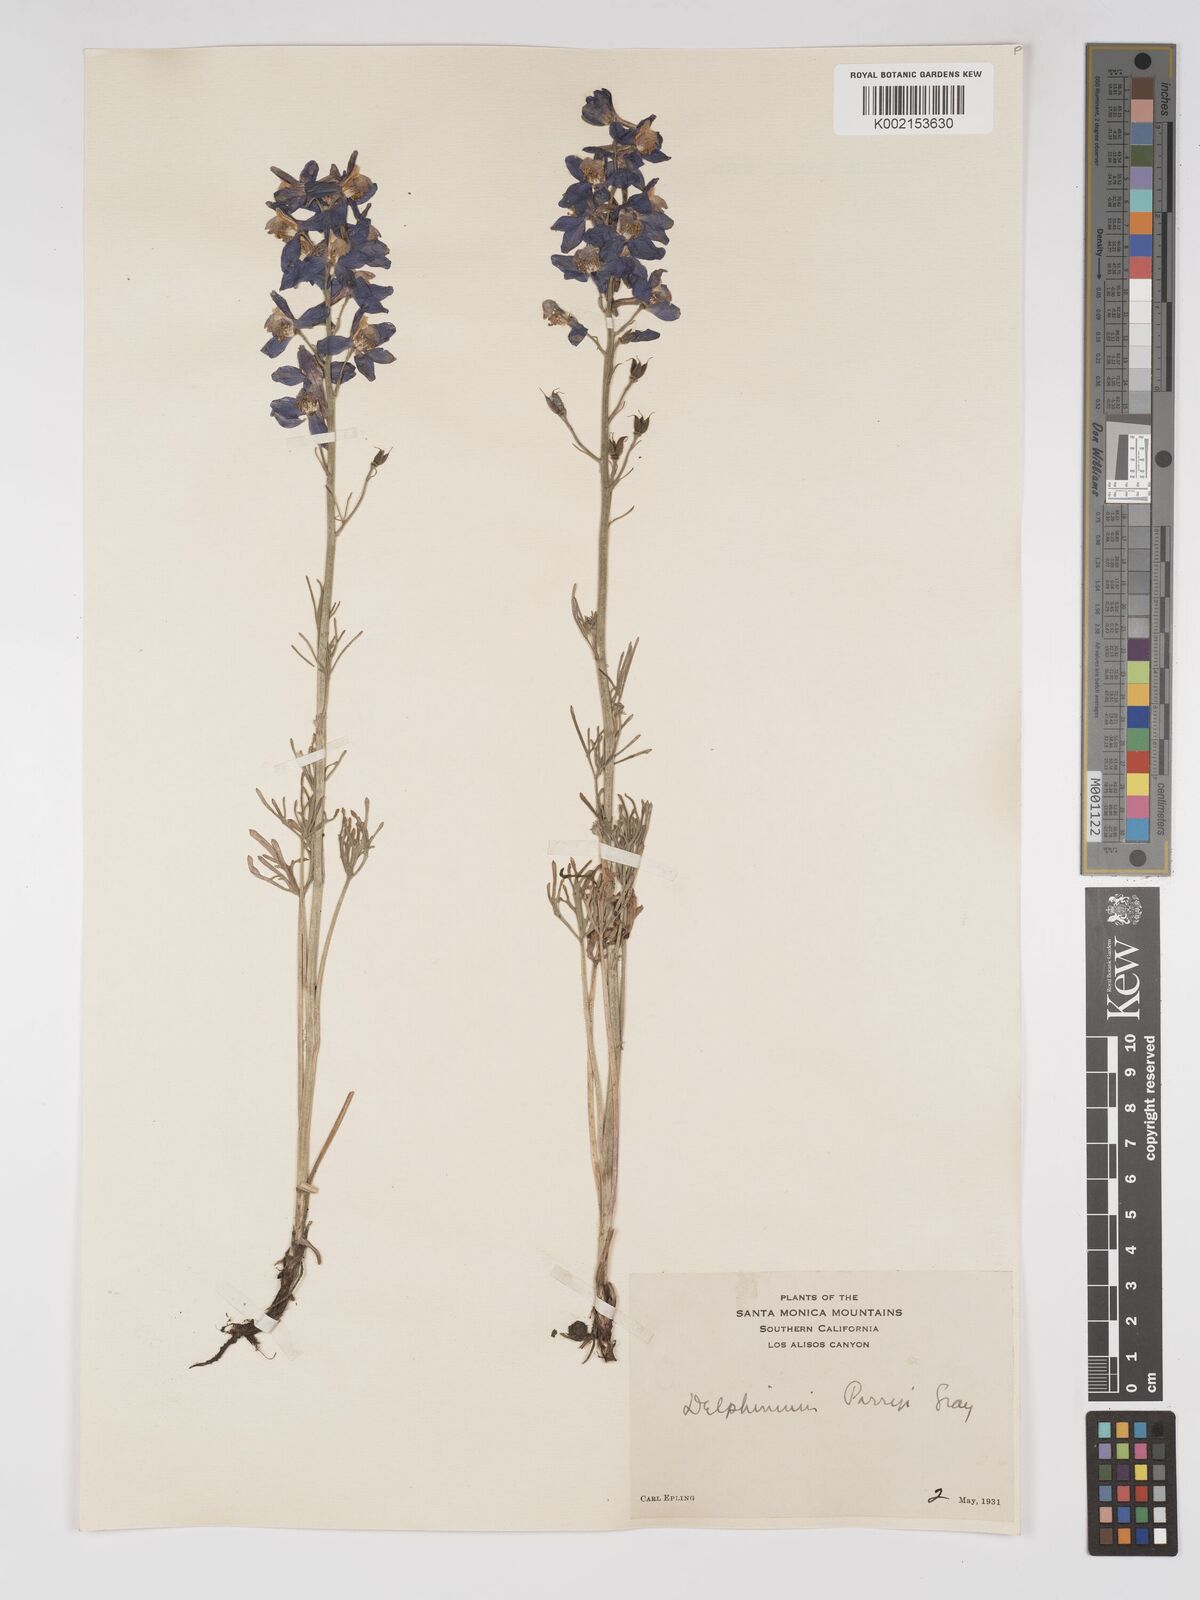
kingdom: Plantae
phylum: Tracheophyta
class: Magnoliopsida
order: Ranunculales
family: Ranunculaceae
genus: Delphinium
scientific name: Delphinium parryi
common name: Parry's larkspur
